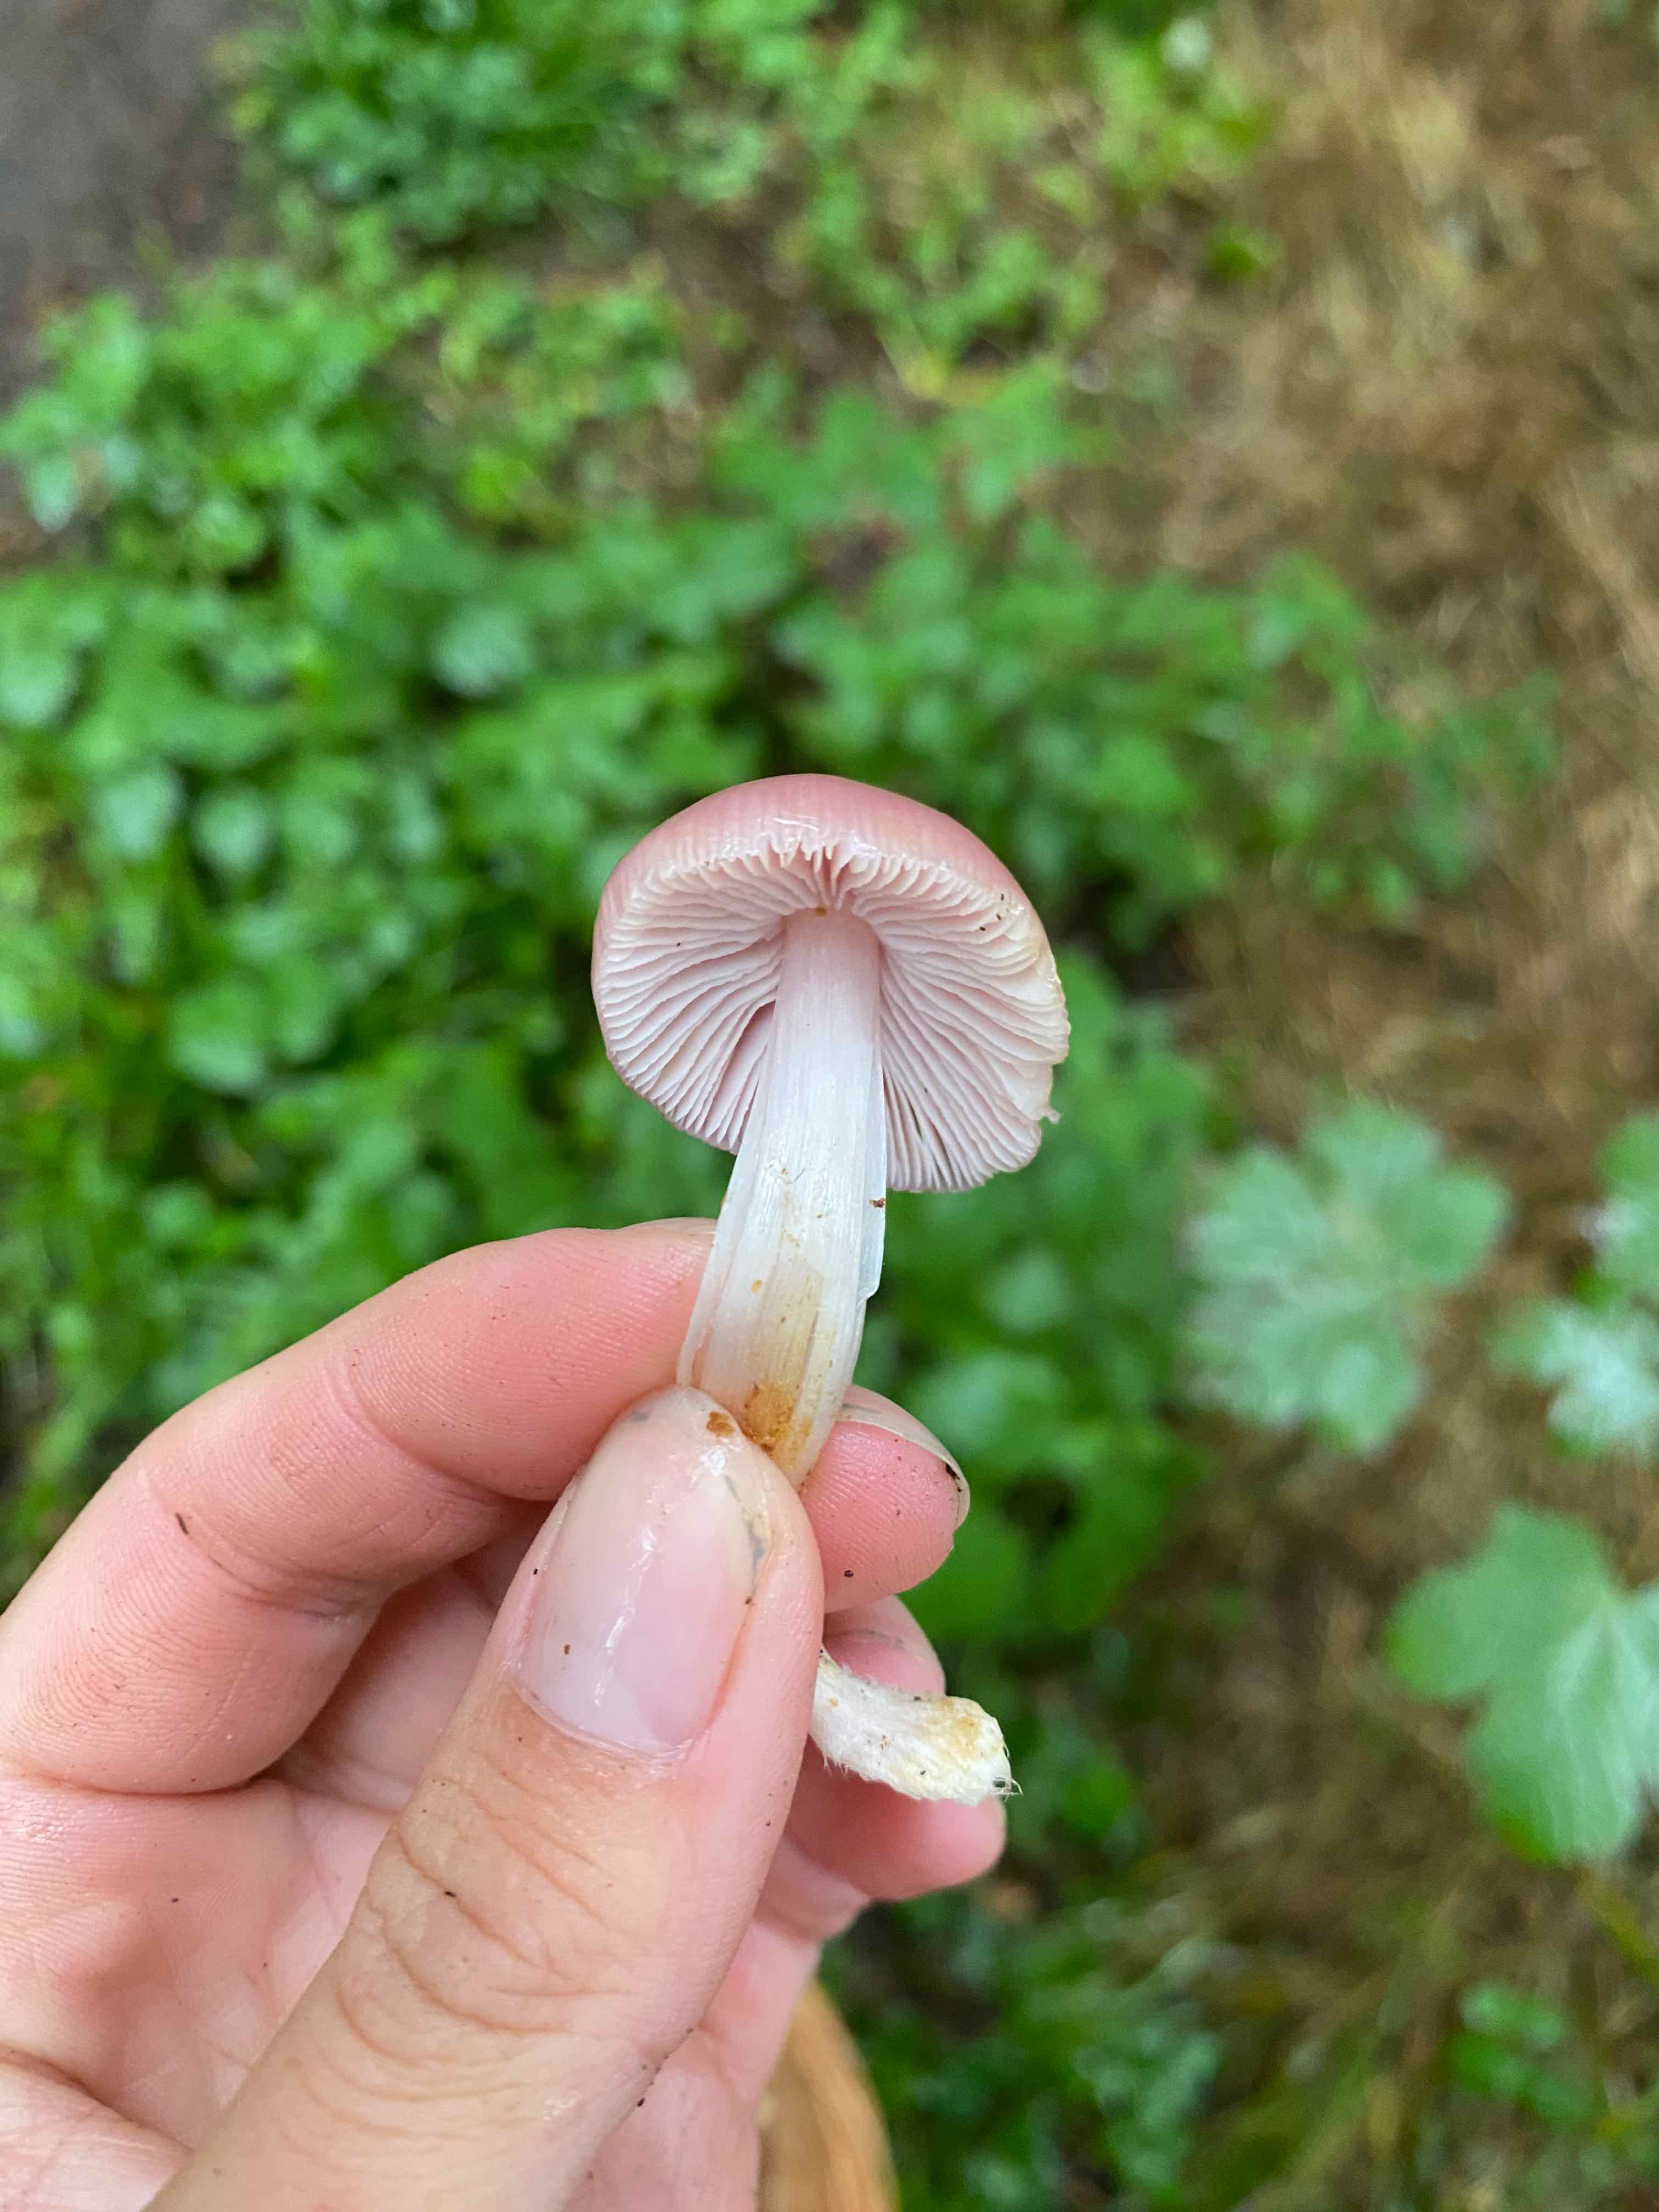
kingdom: Fungi
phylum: Basidiomycota
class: Agaricomycetes
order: Agaricales
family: Mycenaceae
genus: Mycena
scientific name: Mycena rosea
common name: rosa huesvamp
